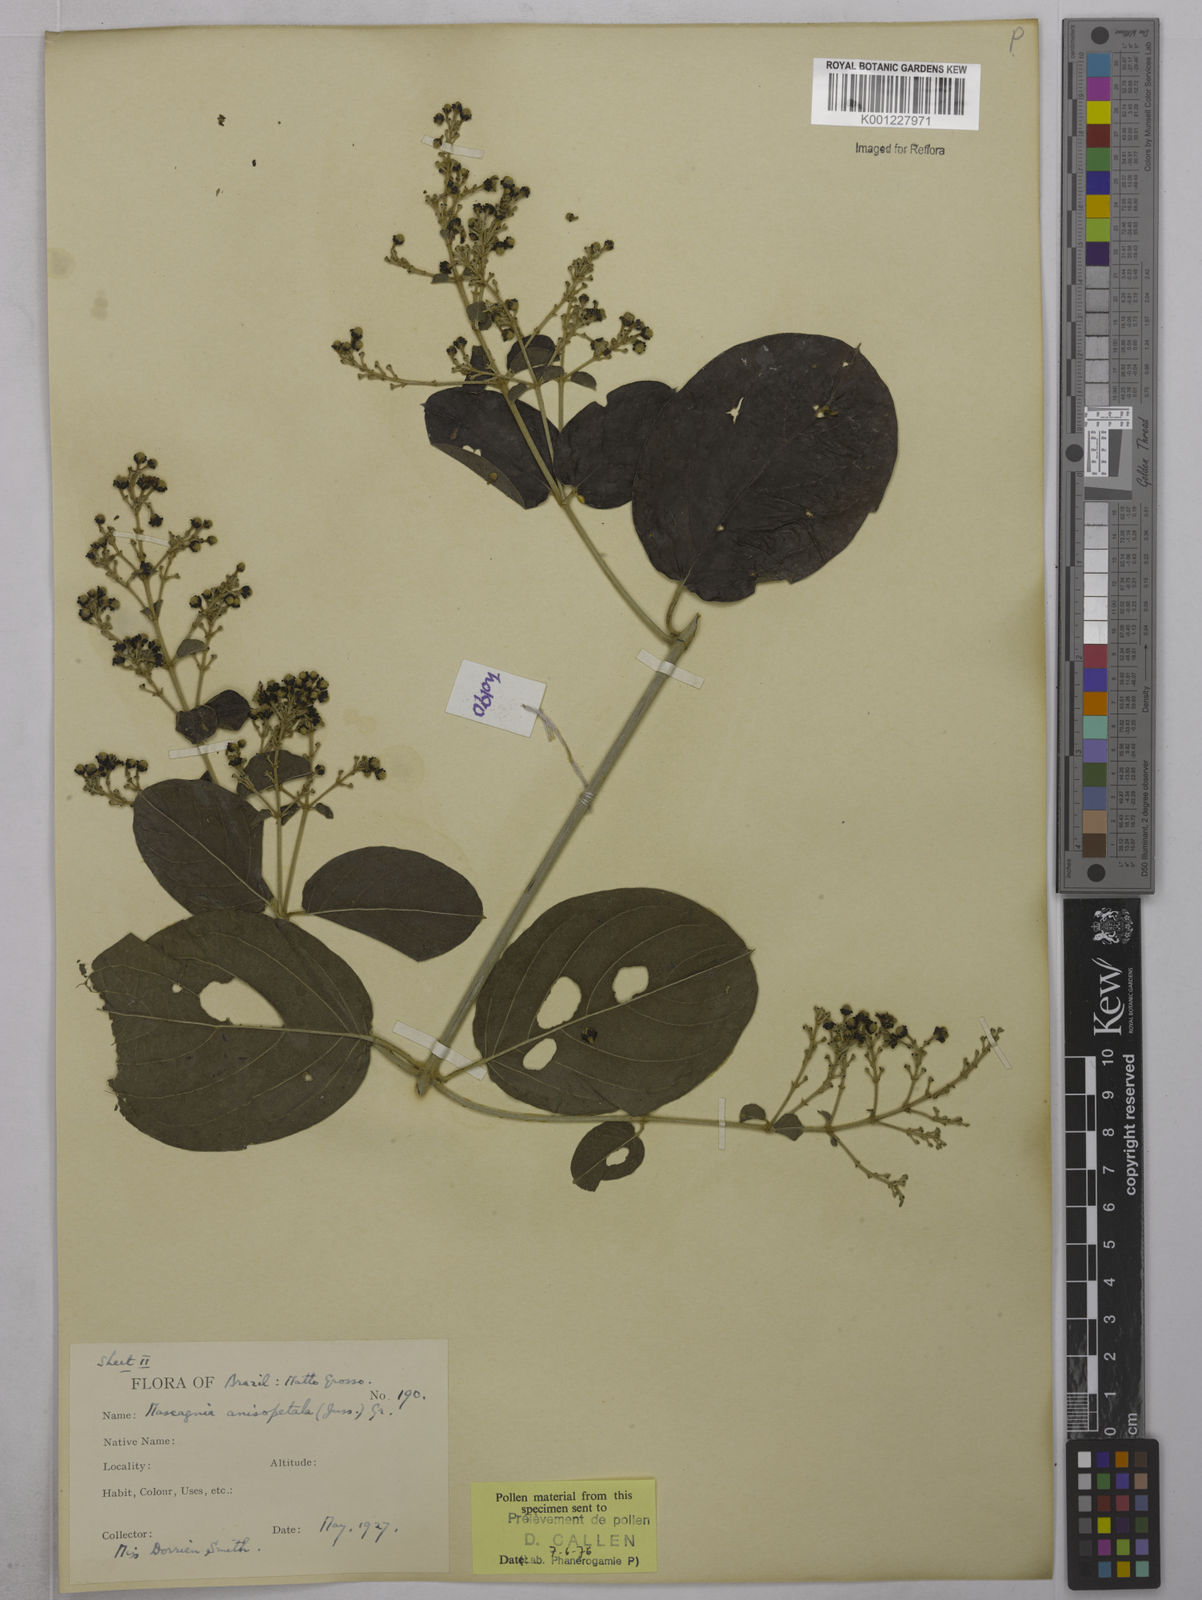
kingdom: Plantae
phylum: Tracheophyta
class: Magnoliopsida
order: Malpighiales
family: Malpighiaceae
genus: Alicia
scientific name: Alicia anisopetala
